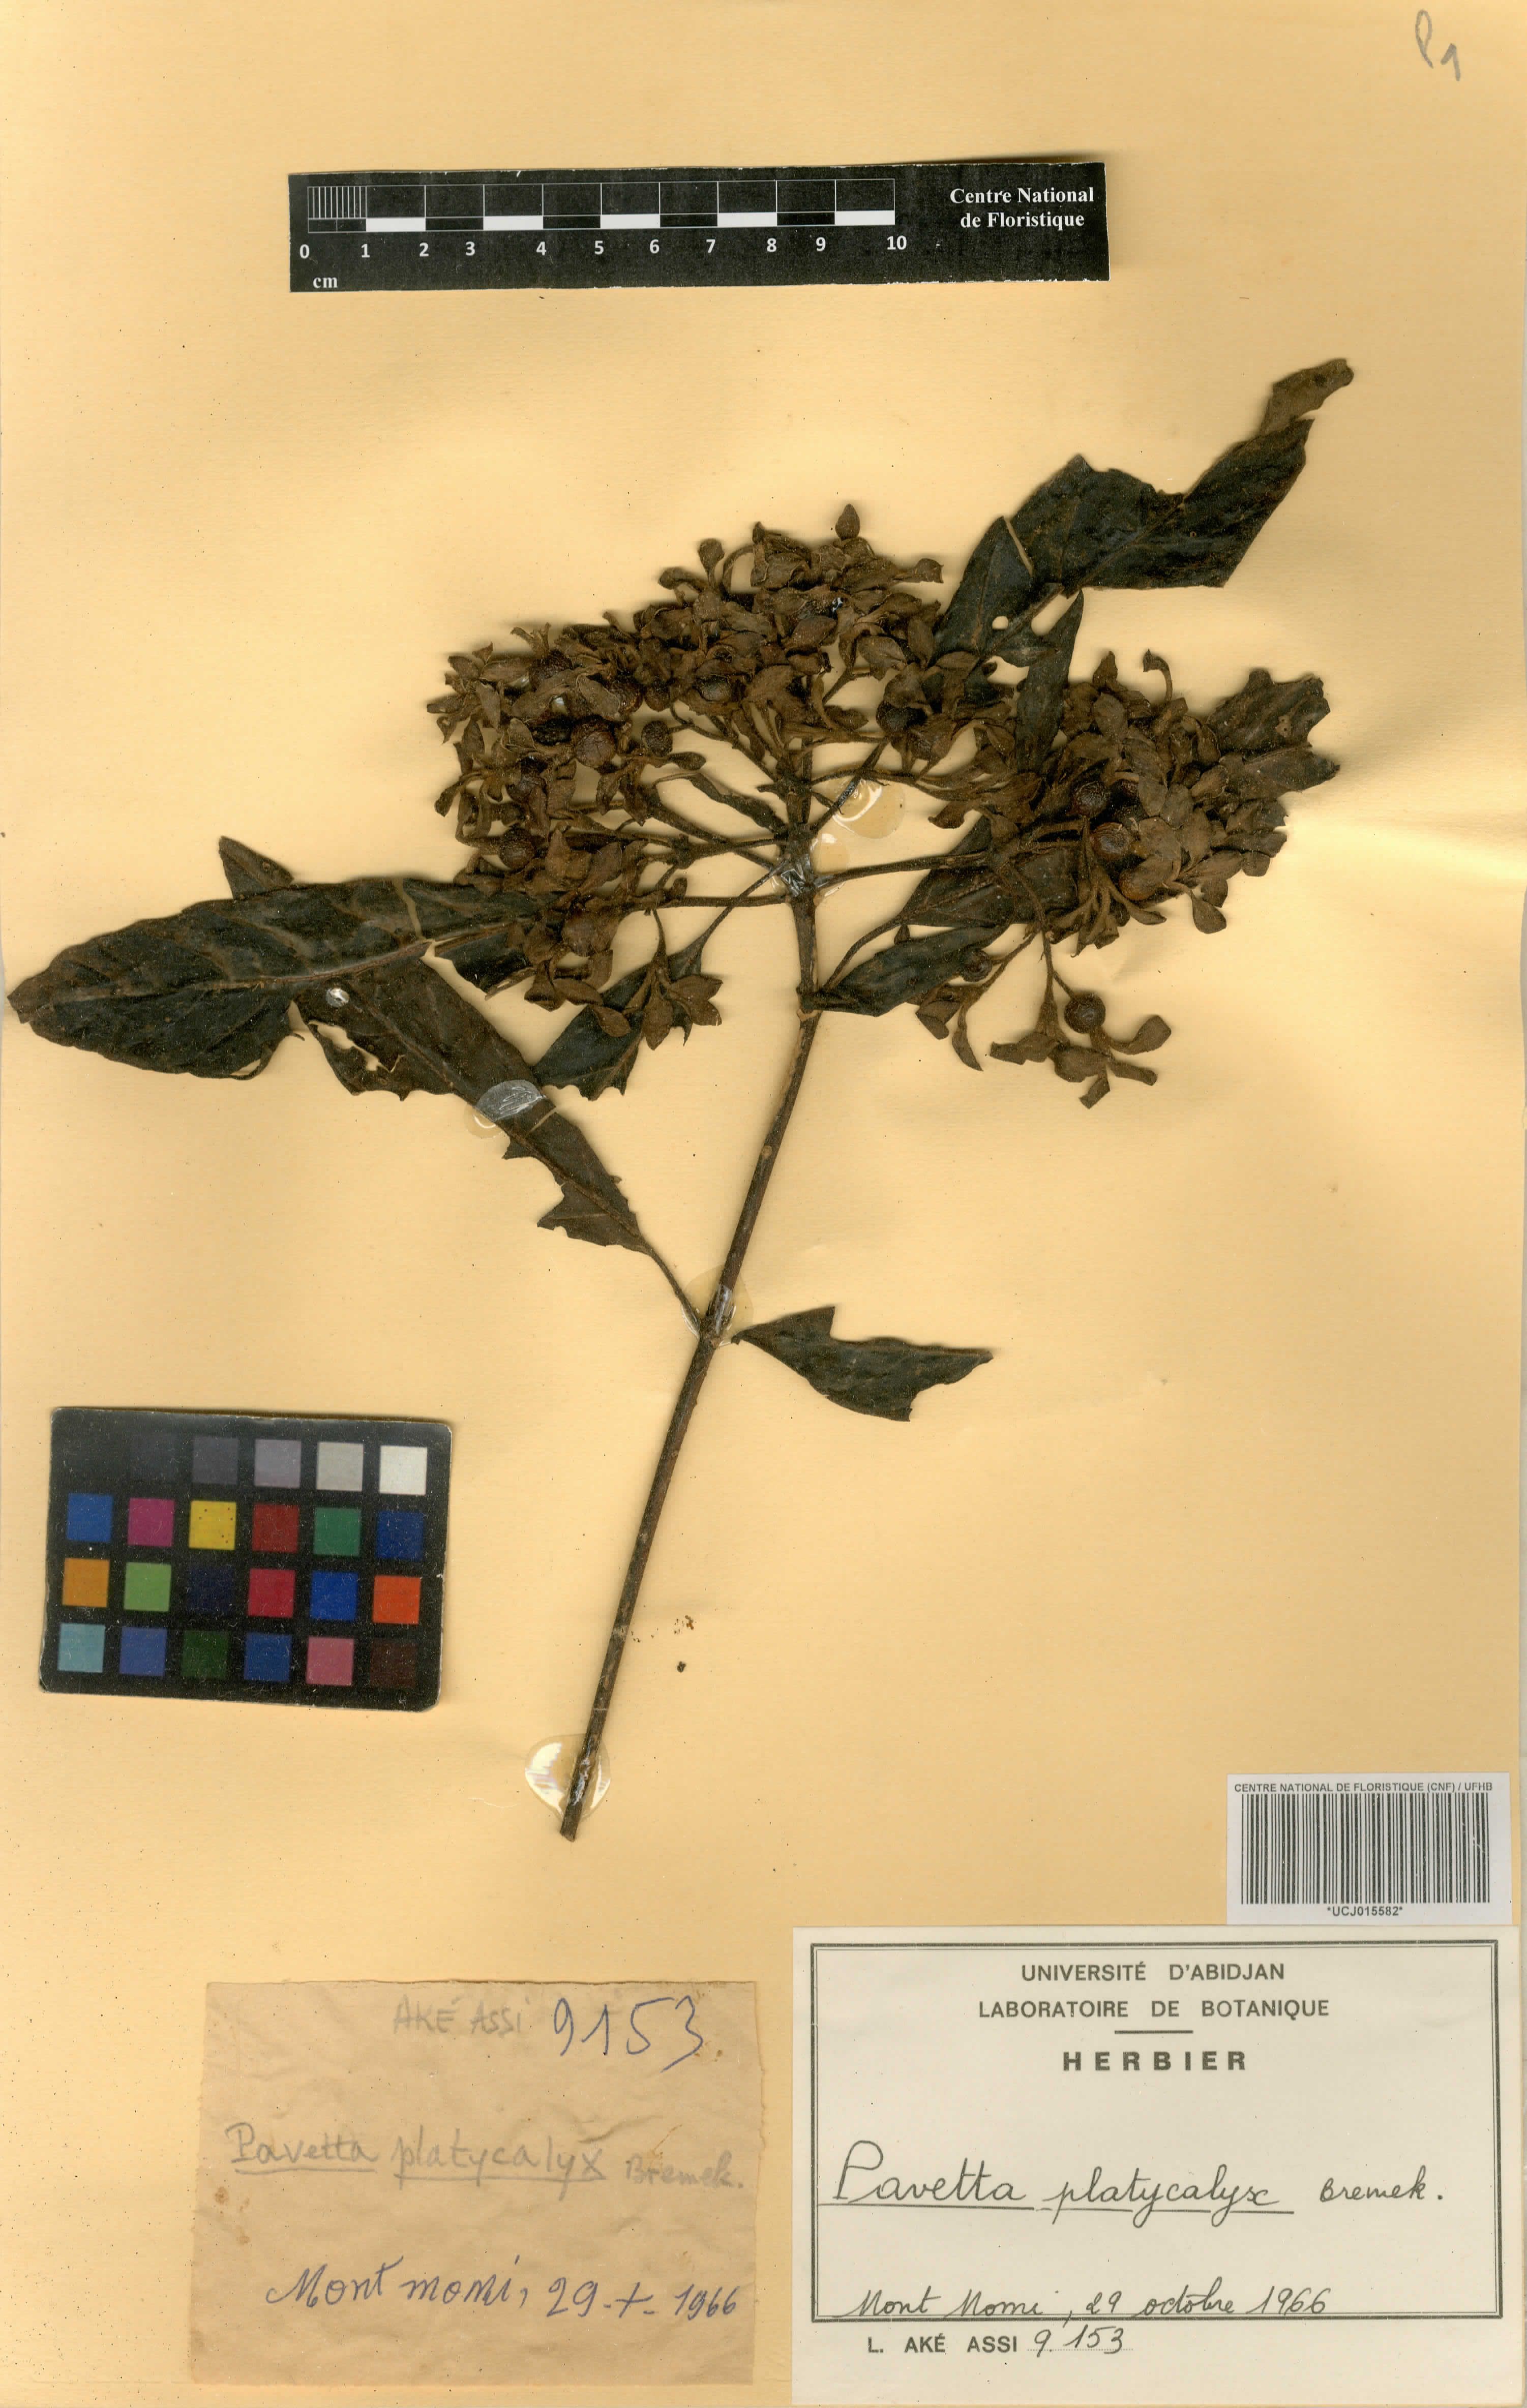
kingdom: Plantae
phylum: Tracheophyta
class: Magnoliopsida
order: Gentianales
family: Rubiaceae
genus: Pavetta
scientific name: Pavetta platycalyx
